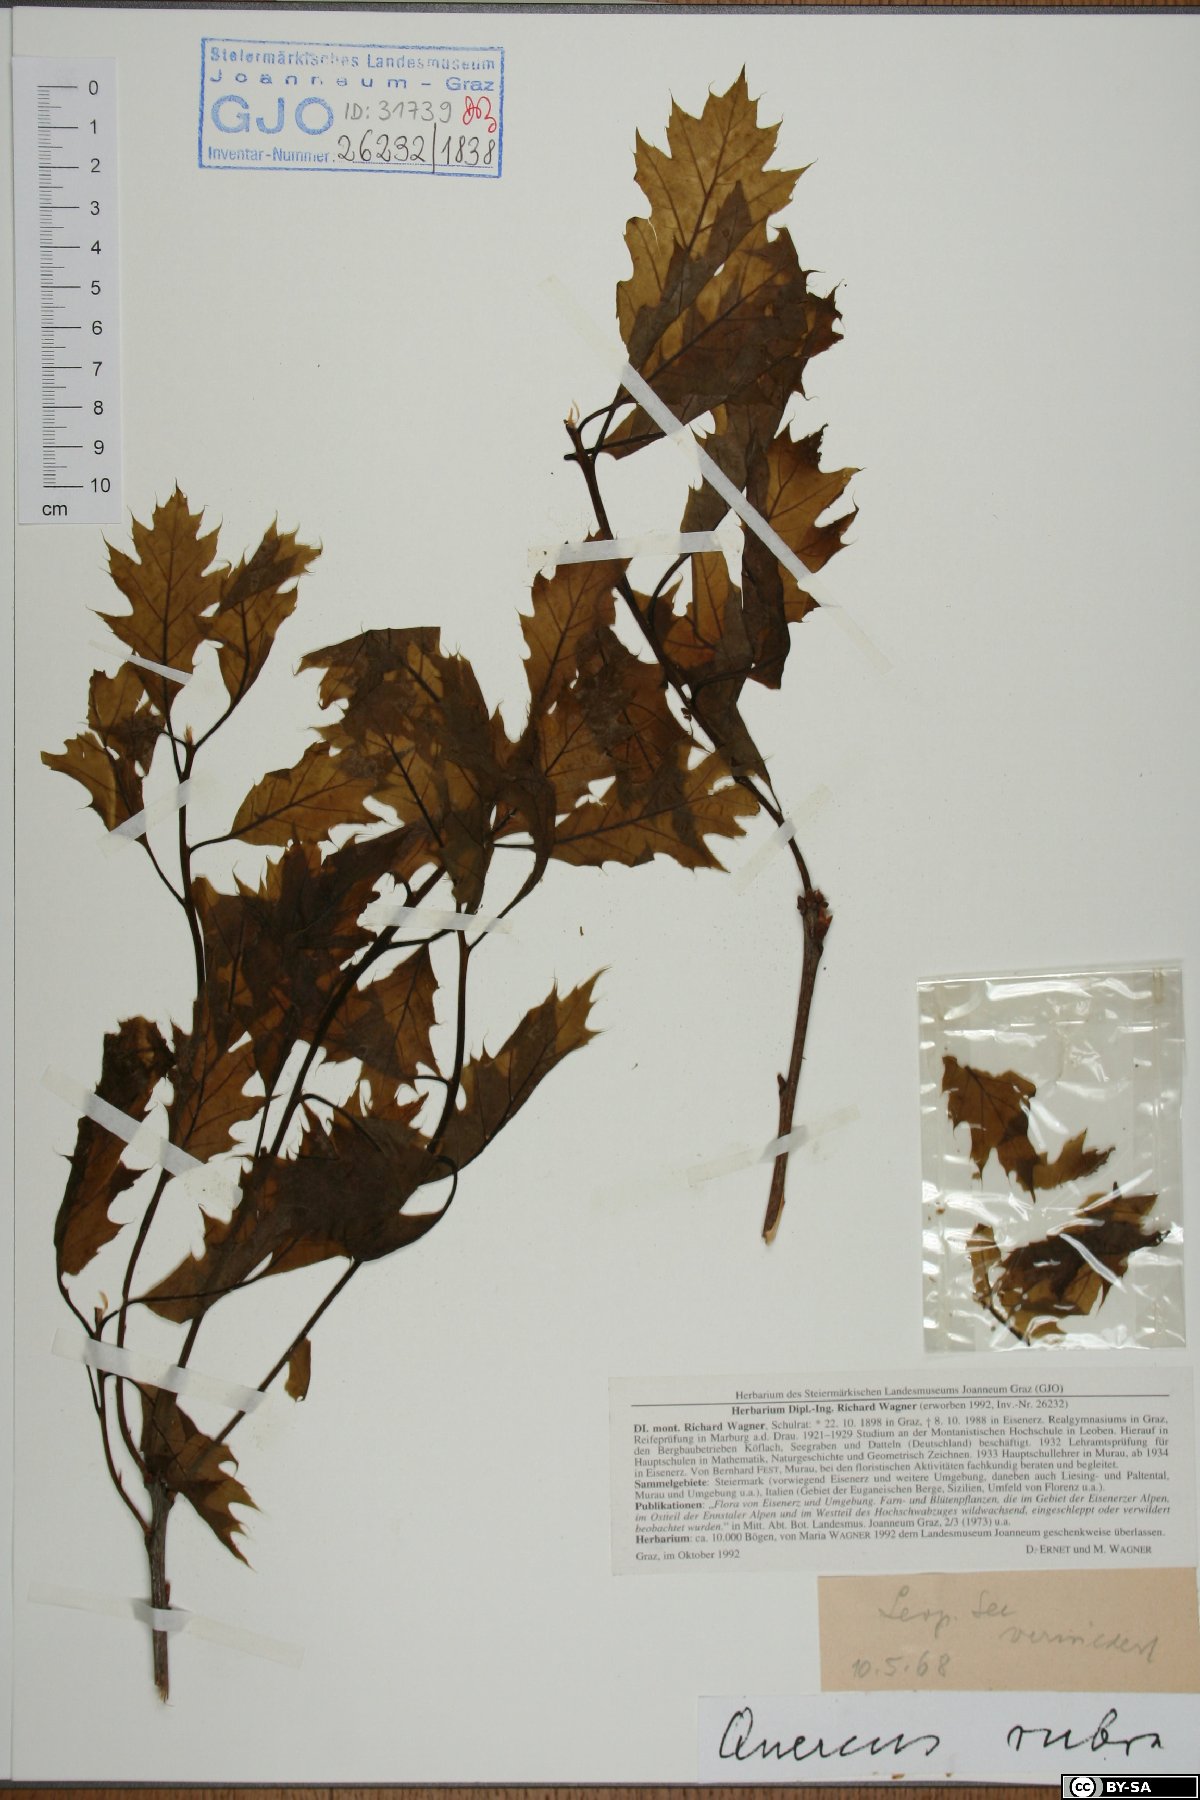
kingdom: Plantae
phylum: Tracheophyta
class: Magnoliopsida
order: Fagales
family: Fagaceae
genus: Quercus
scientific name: Quercus rubra
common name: Red oak
